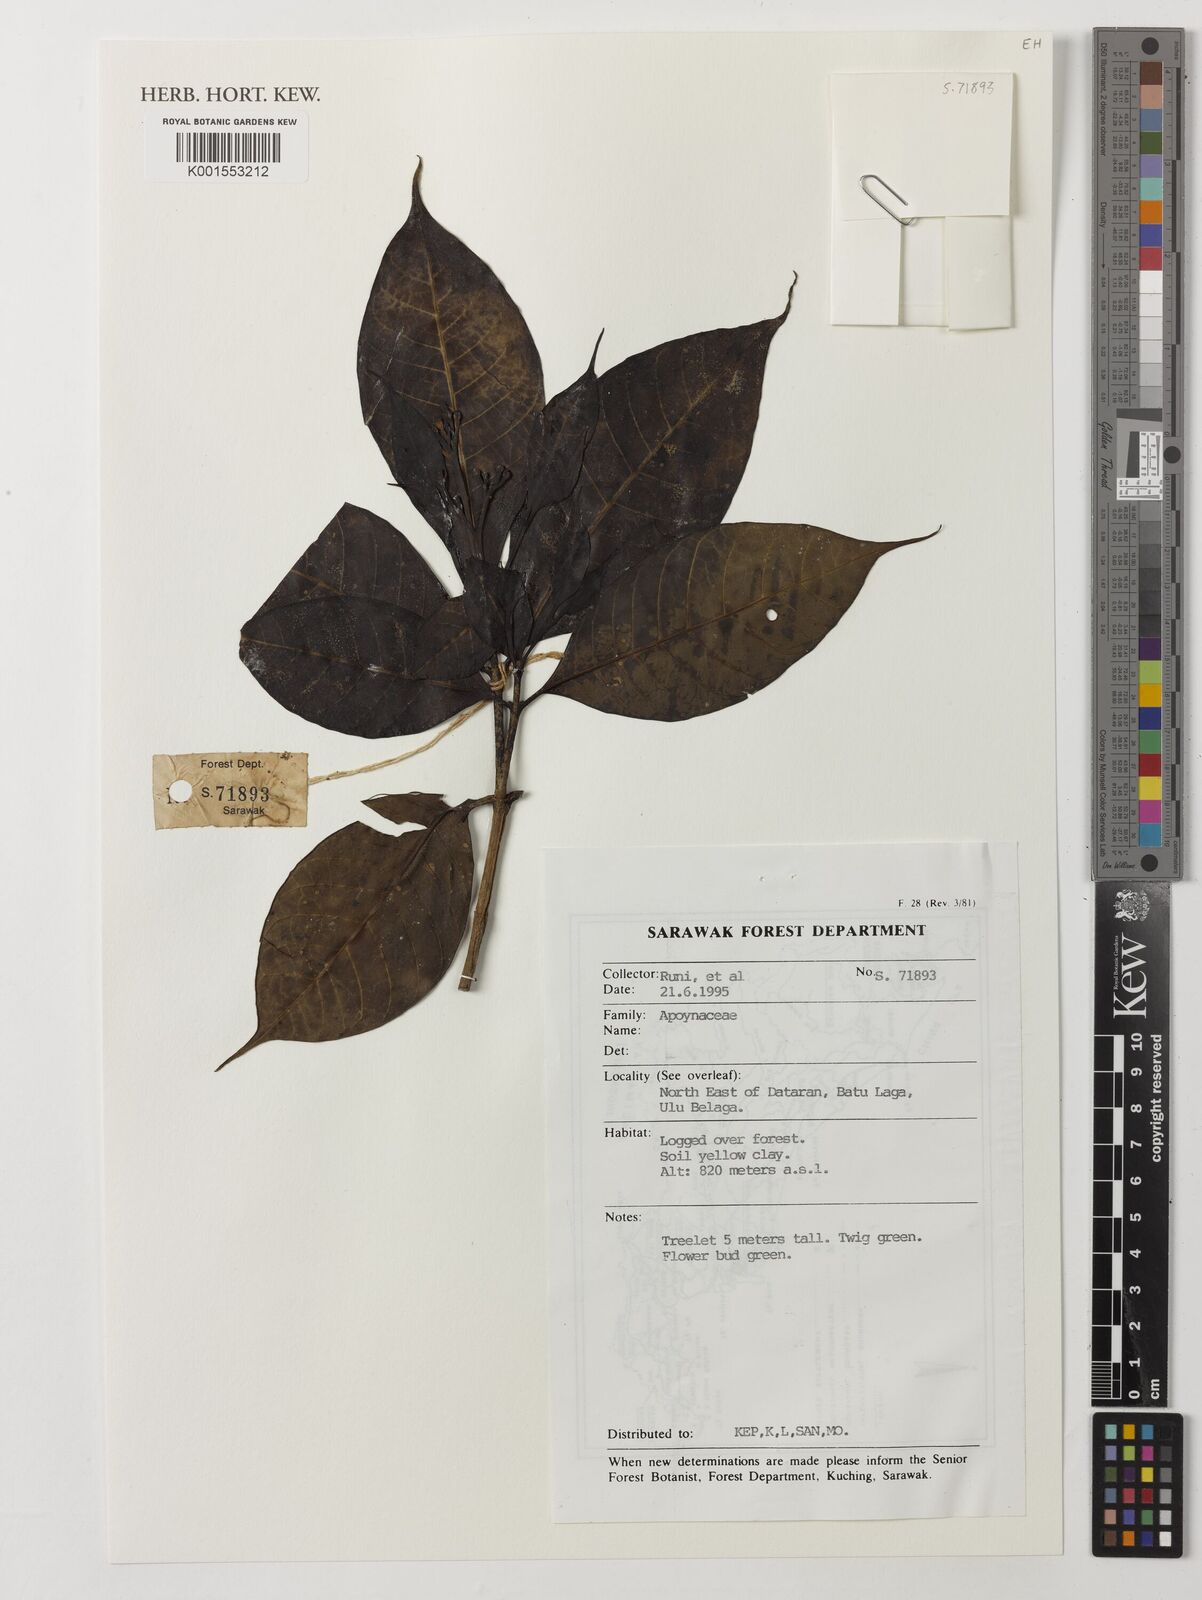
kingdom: Plantae
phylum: Tracheophyta
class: Magnoliopsida
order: Gentianales
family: Apocynaceae
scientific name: Apocynaceae
